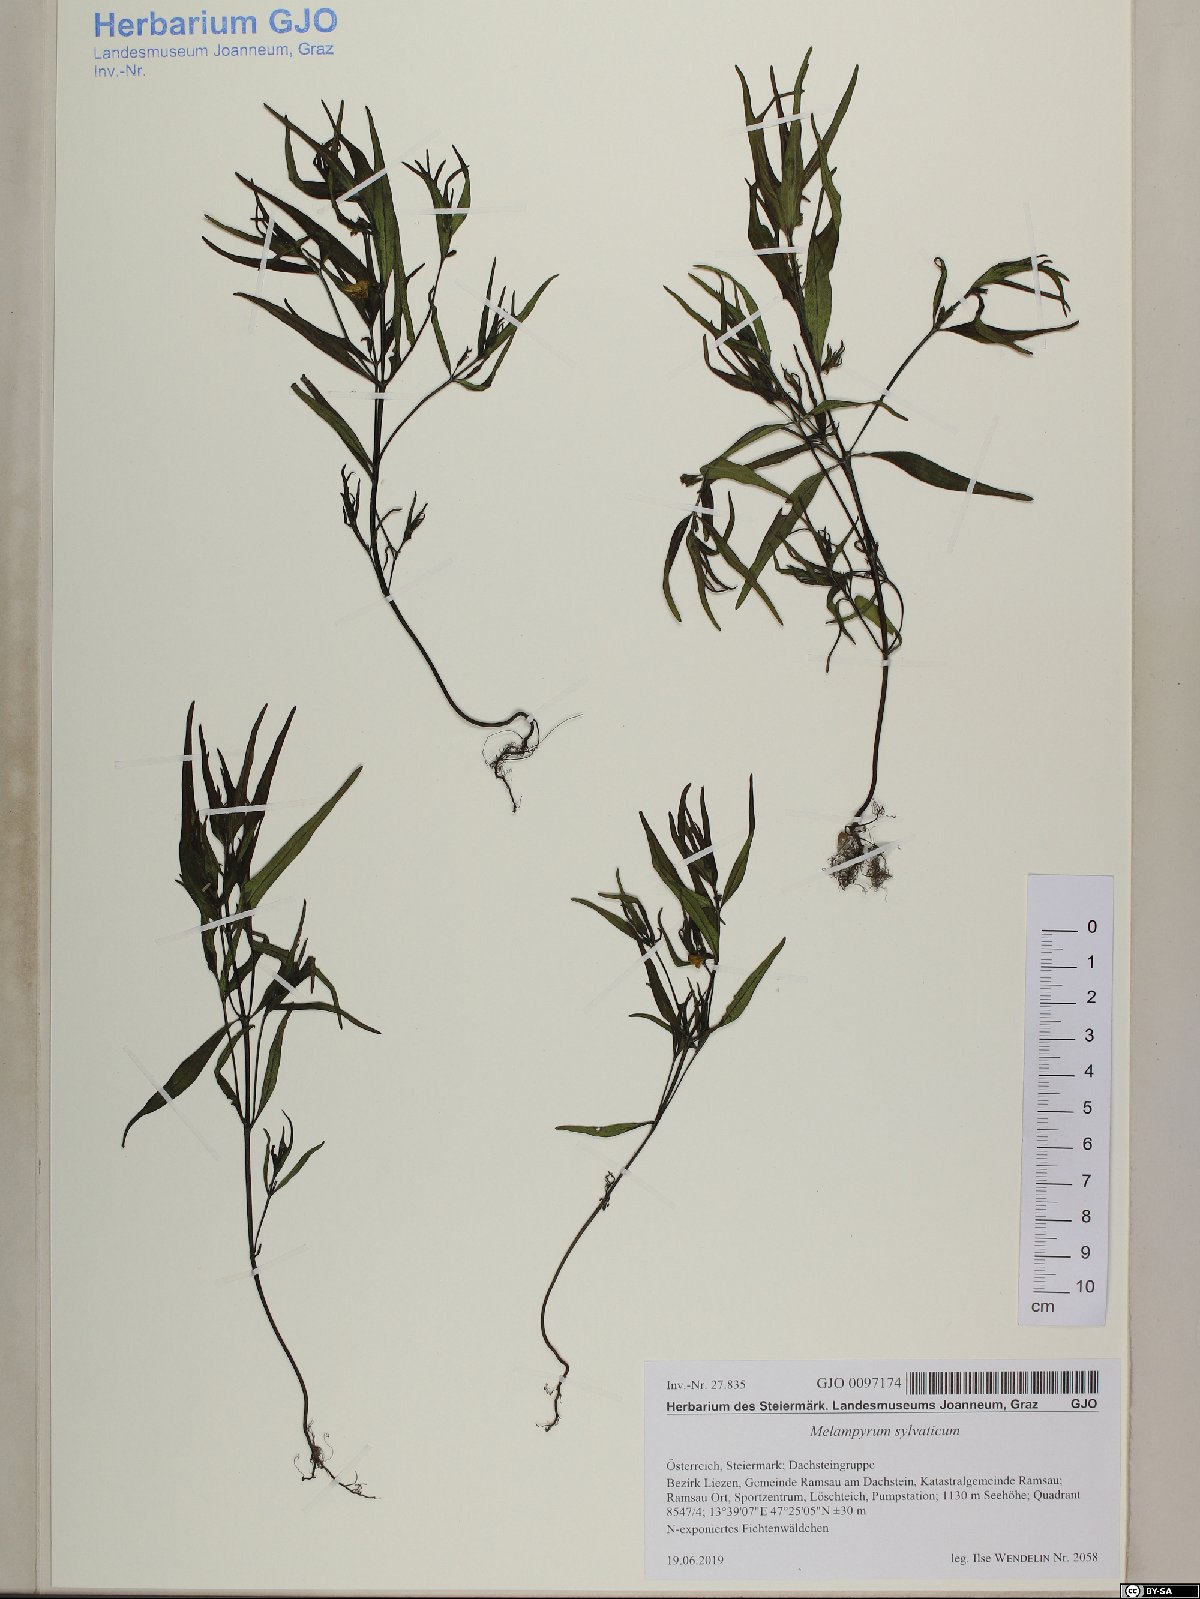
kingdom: Plantae
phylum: Tracheophyta
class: Magnoliopsida
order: Lamiales
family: Orobanchaceae
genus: Melampyrum
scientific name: Melampyrum sylvaticum
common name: Small cow-wheat
